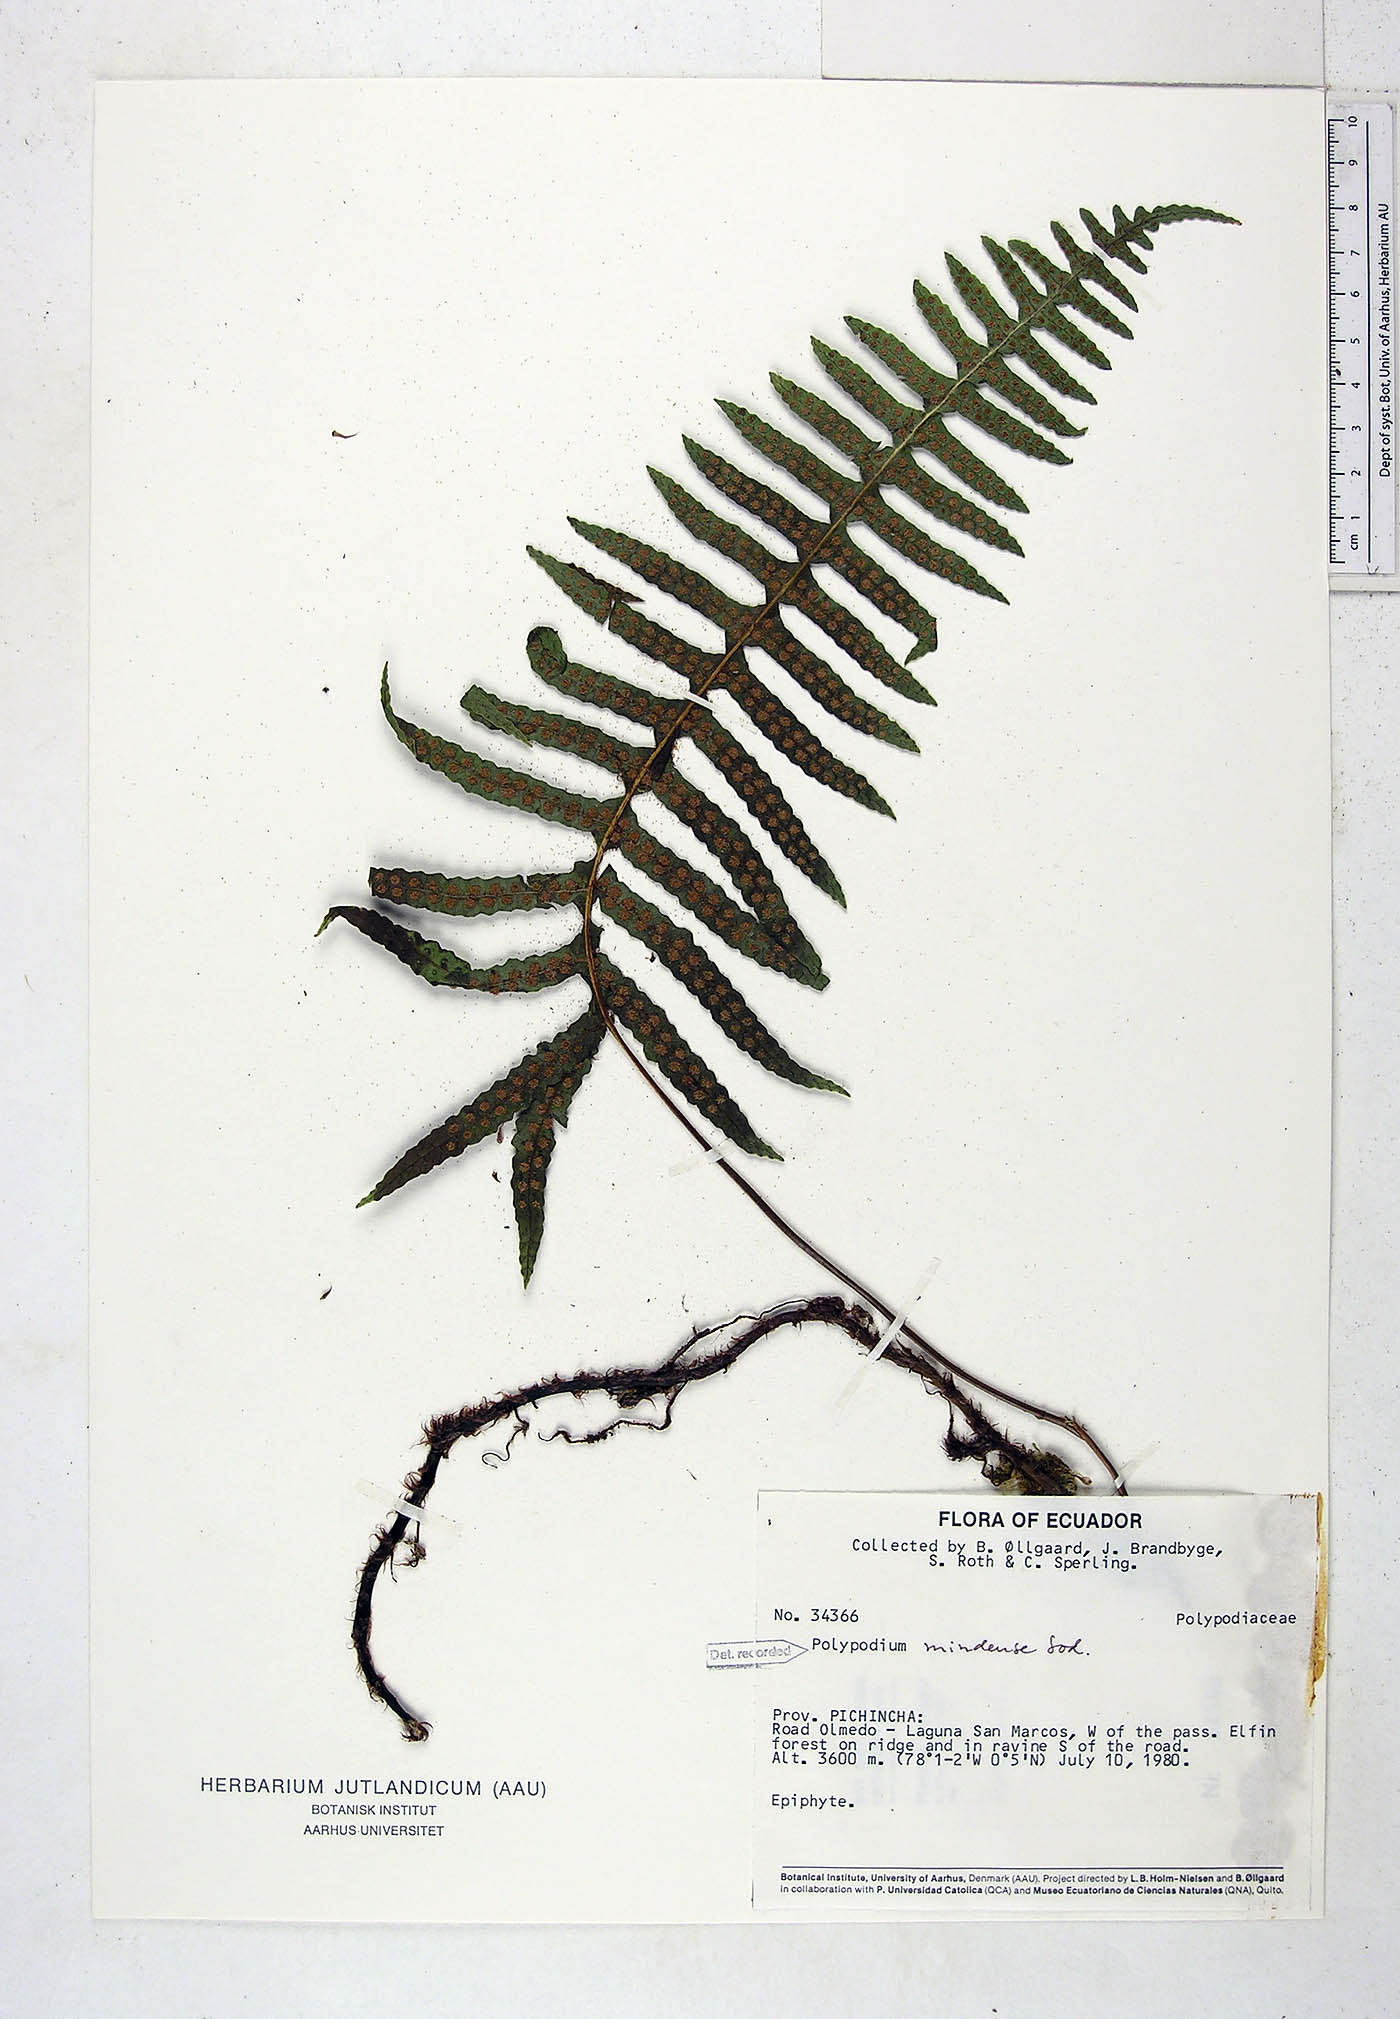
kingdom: Plantae
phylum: Tracheophyta
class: Polypodiopsida
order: Polypodiales
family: Polypodiaceae
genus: Serpocaulon
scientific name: Serpocaulon eleutherophlebium
